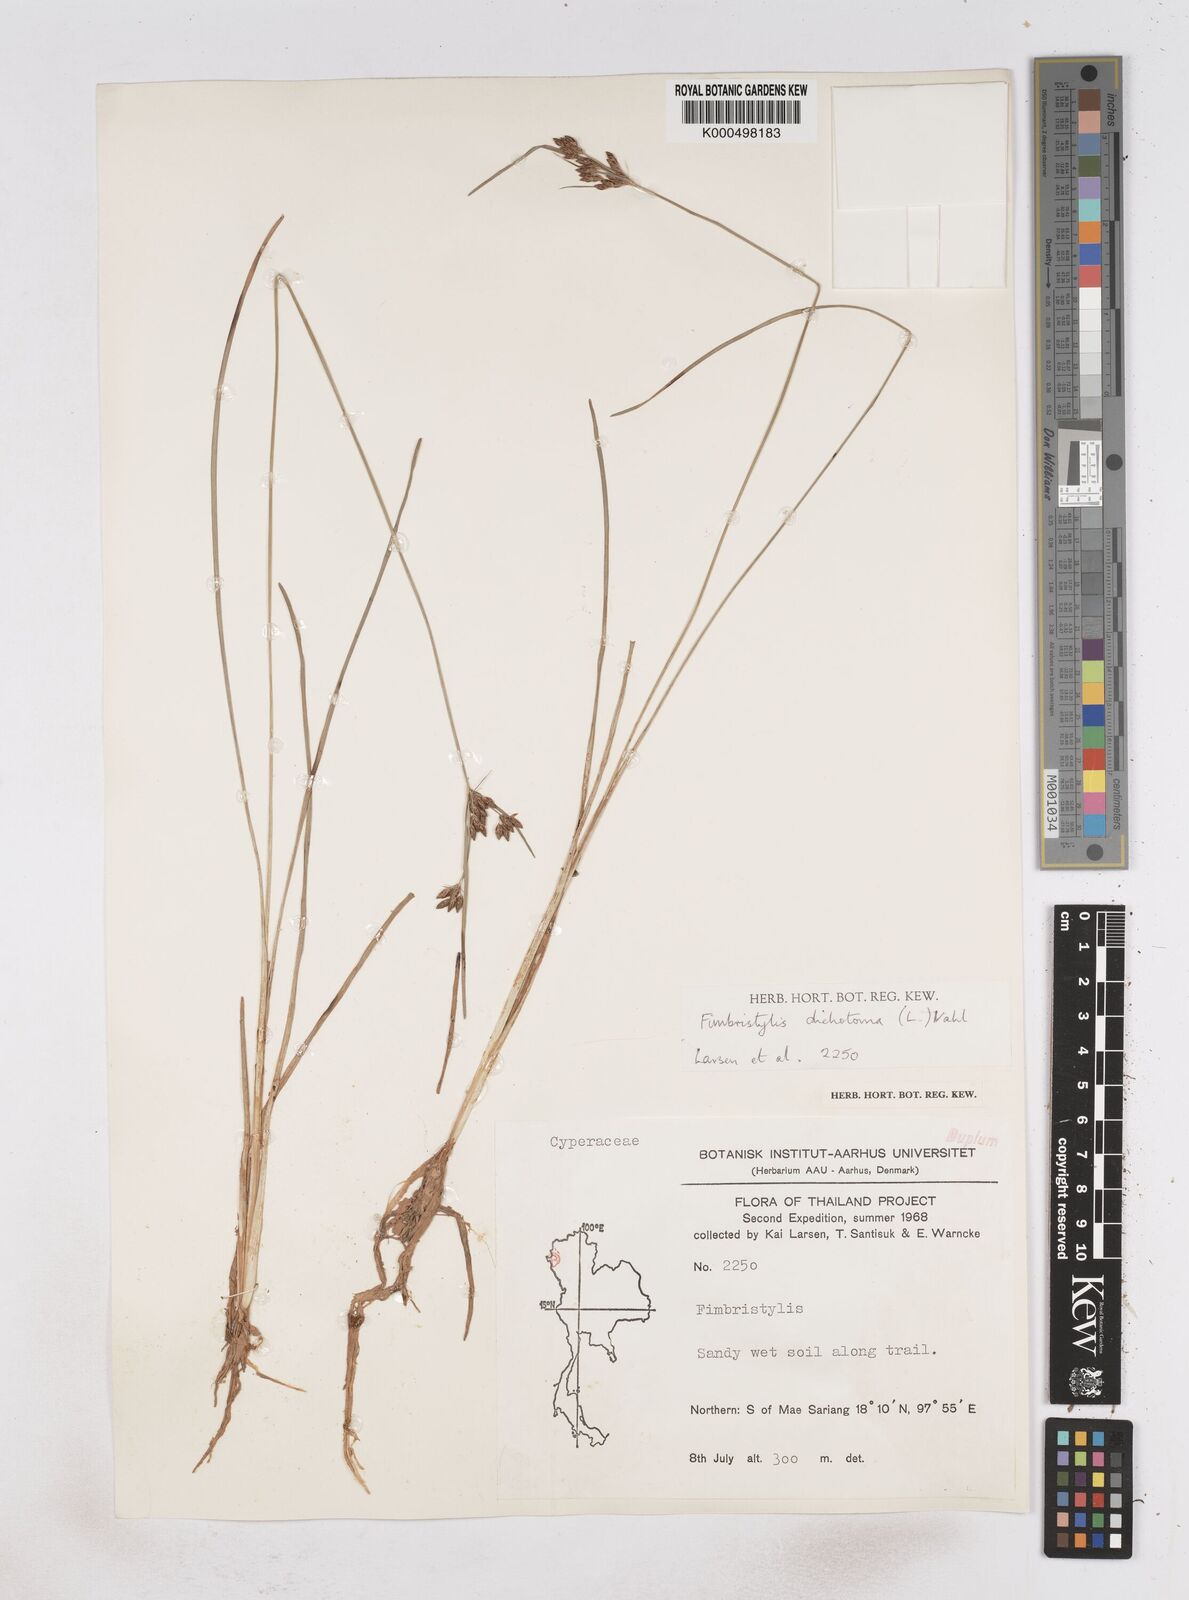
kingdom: Plantae
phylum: Tracheophyta
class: Liliopsida
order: Poales
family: Cyperaceae
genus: Fimbristylis
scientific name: Fimbristylis dichotoma
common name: Forked fimbry
